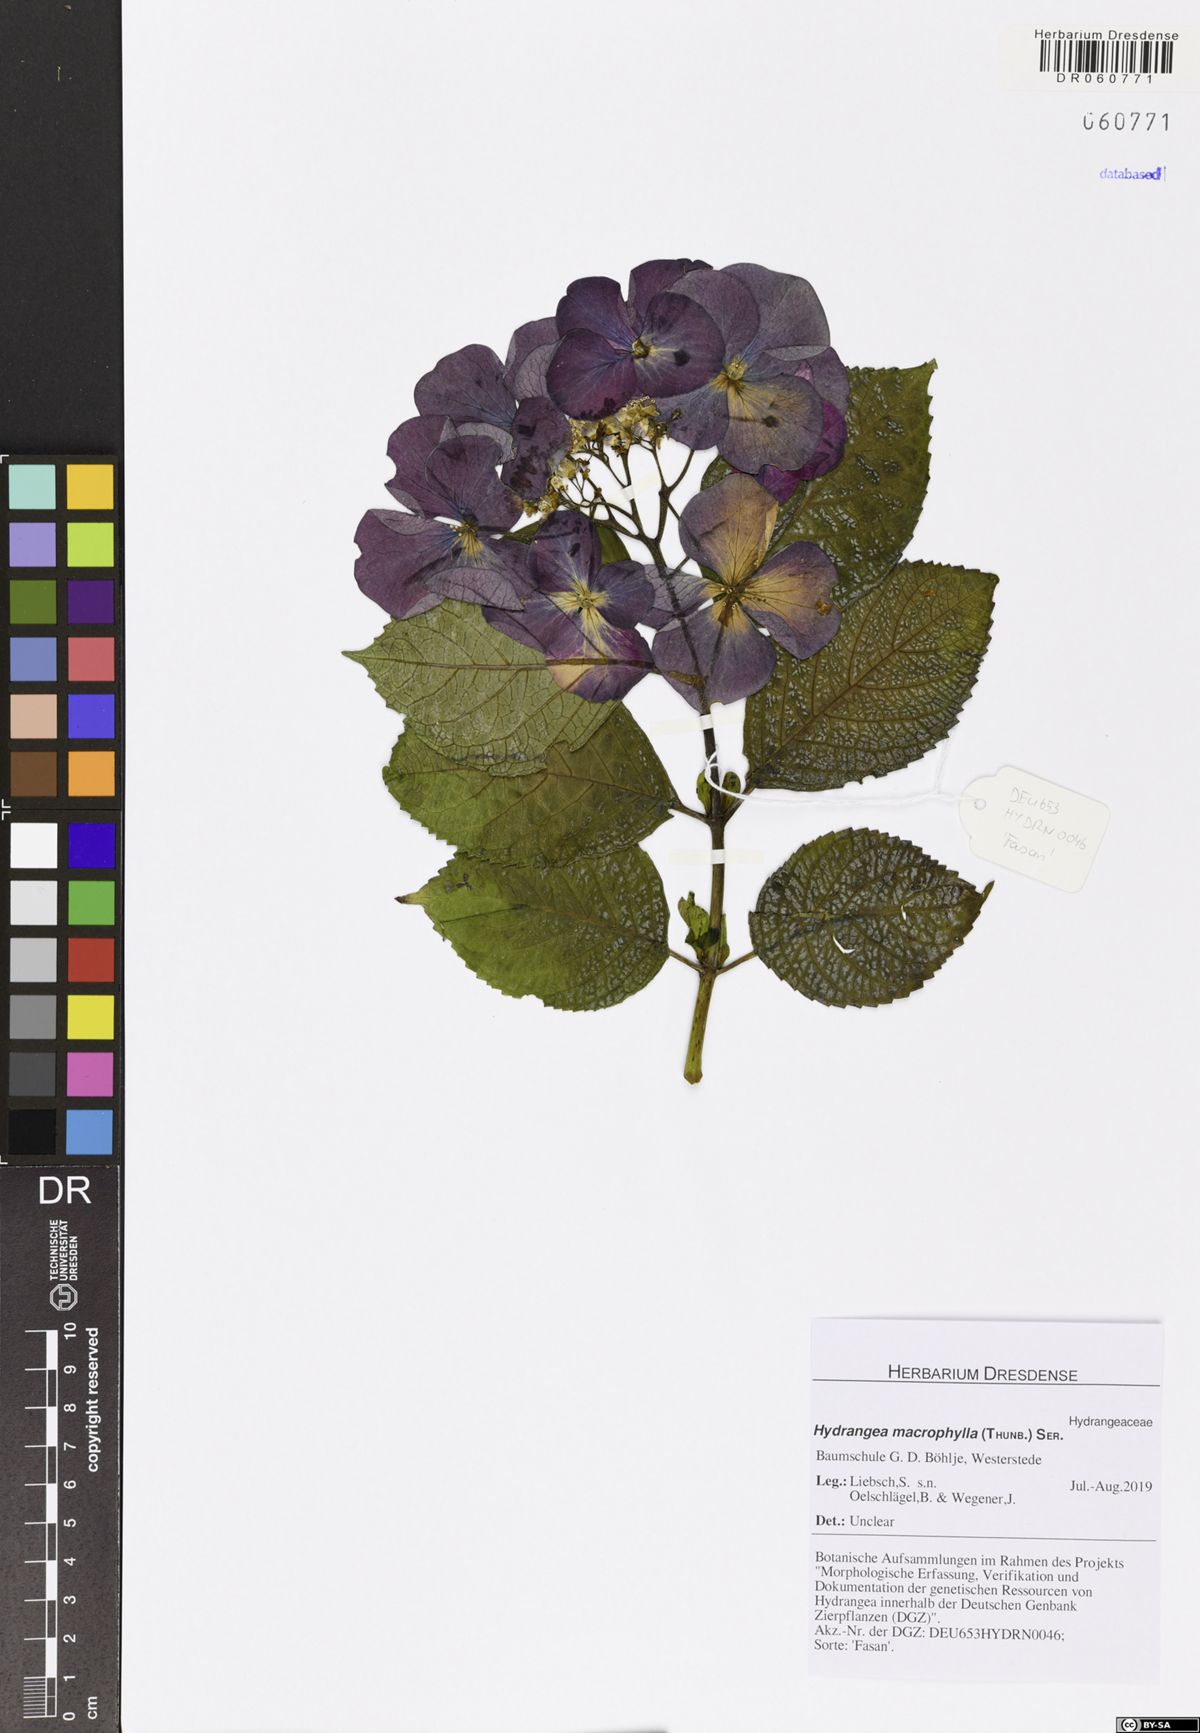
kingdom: Plantae
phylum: Tracheophyta
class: Magnoliopsida
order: Cornales
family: Hydrangeaceae
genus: Hydrangea
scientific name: Hydrangea macrophylla
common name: Hydrangea
